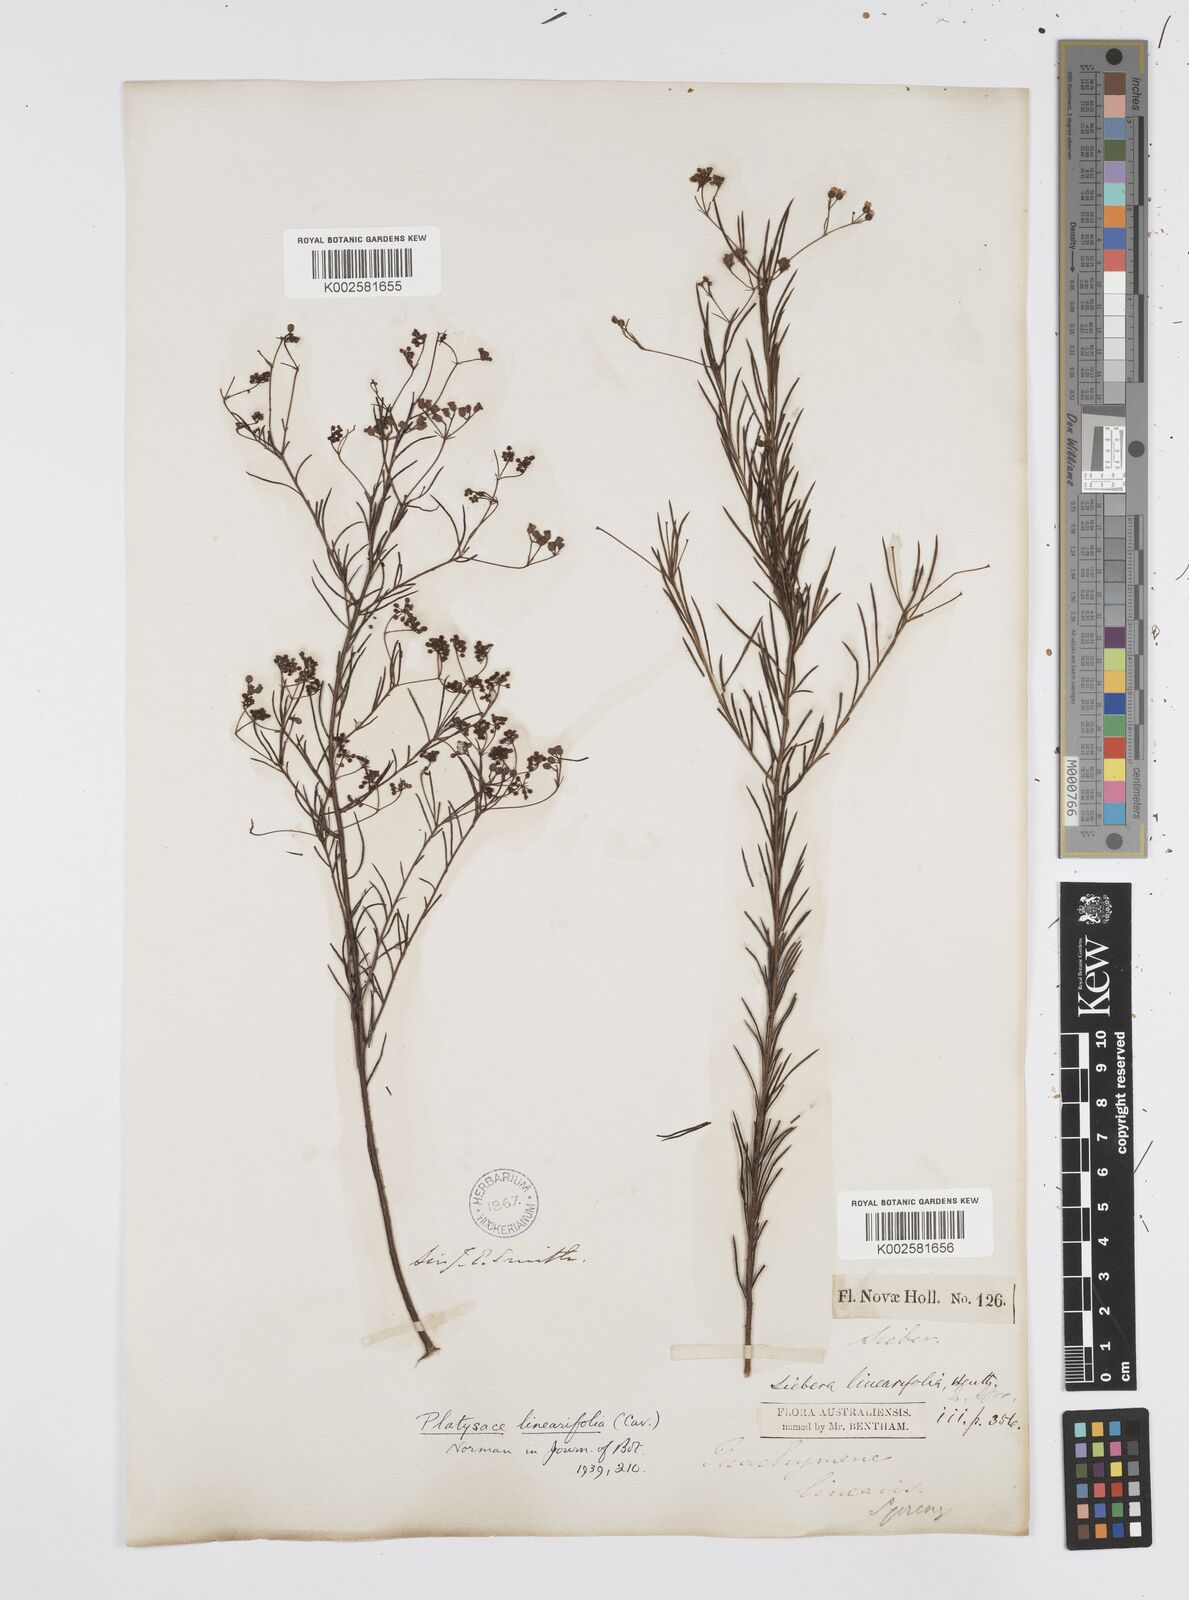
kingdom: Plantae
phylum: Tracheophyta
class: Magnoliopsida
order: Apiales
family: Apiaceae
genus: Platysace
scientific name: Platysace linearifolia
